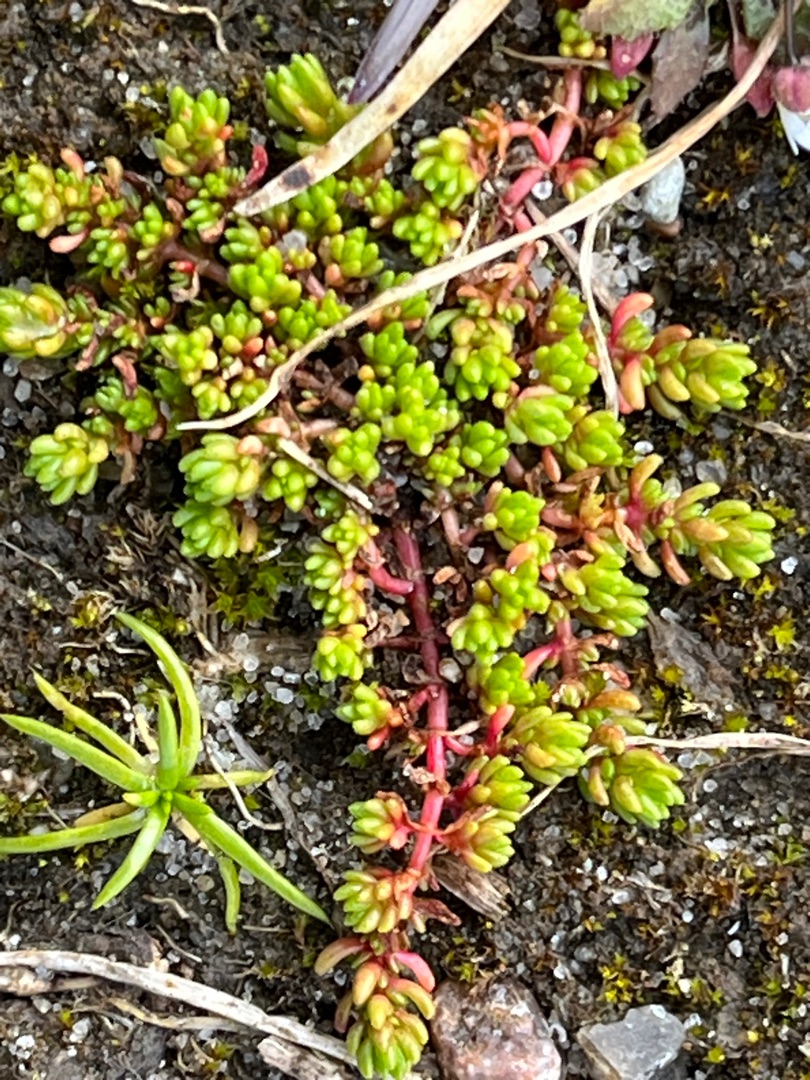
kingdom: Plantae
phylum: Tracheophyta
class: Magnoliopsida
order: Saxifragales
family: Crassulaceae
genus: Crassula
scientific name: Crassula tillaea
